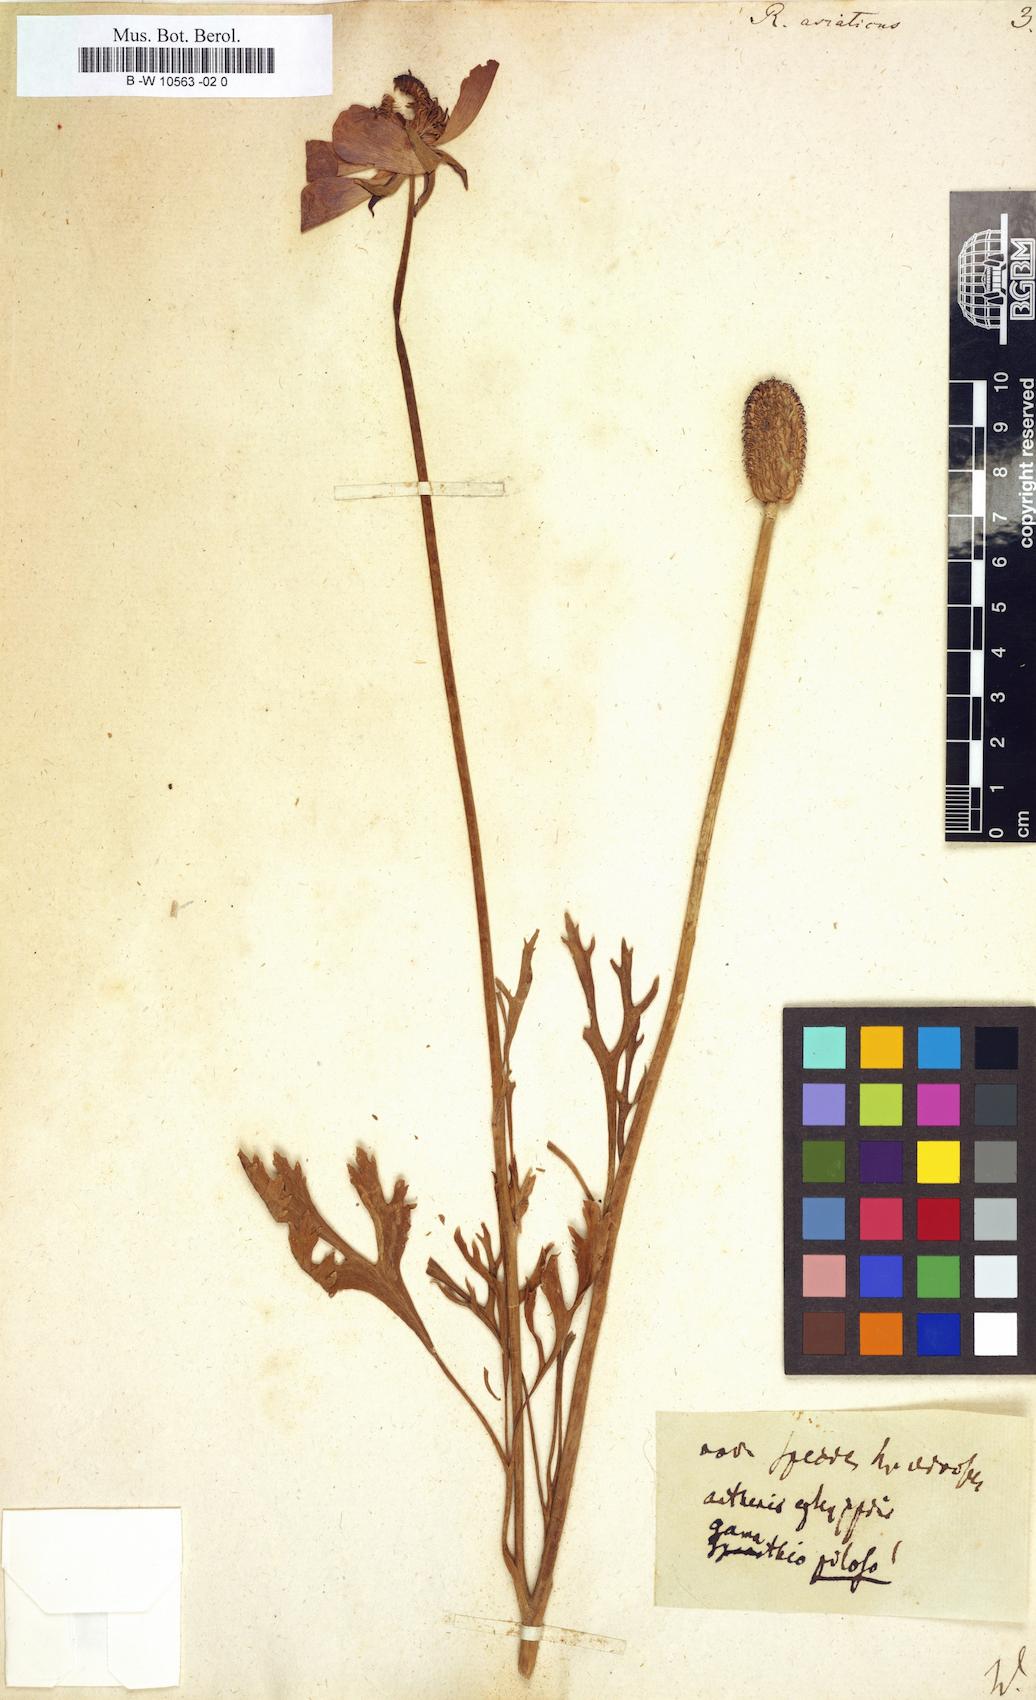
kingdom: Plantae
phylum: Tracheophyta
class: Magnoliopsida
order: Ranunculales
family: Ranunculaceae
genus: Ranunculus
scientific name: Ranunculus asiaticus
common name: Persian buttercup
